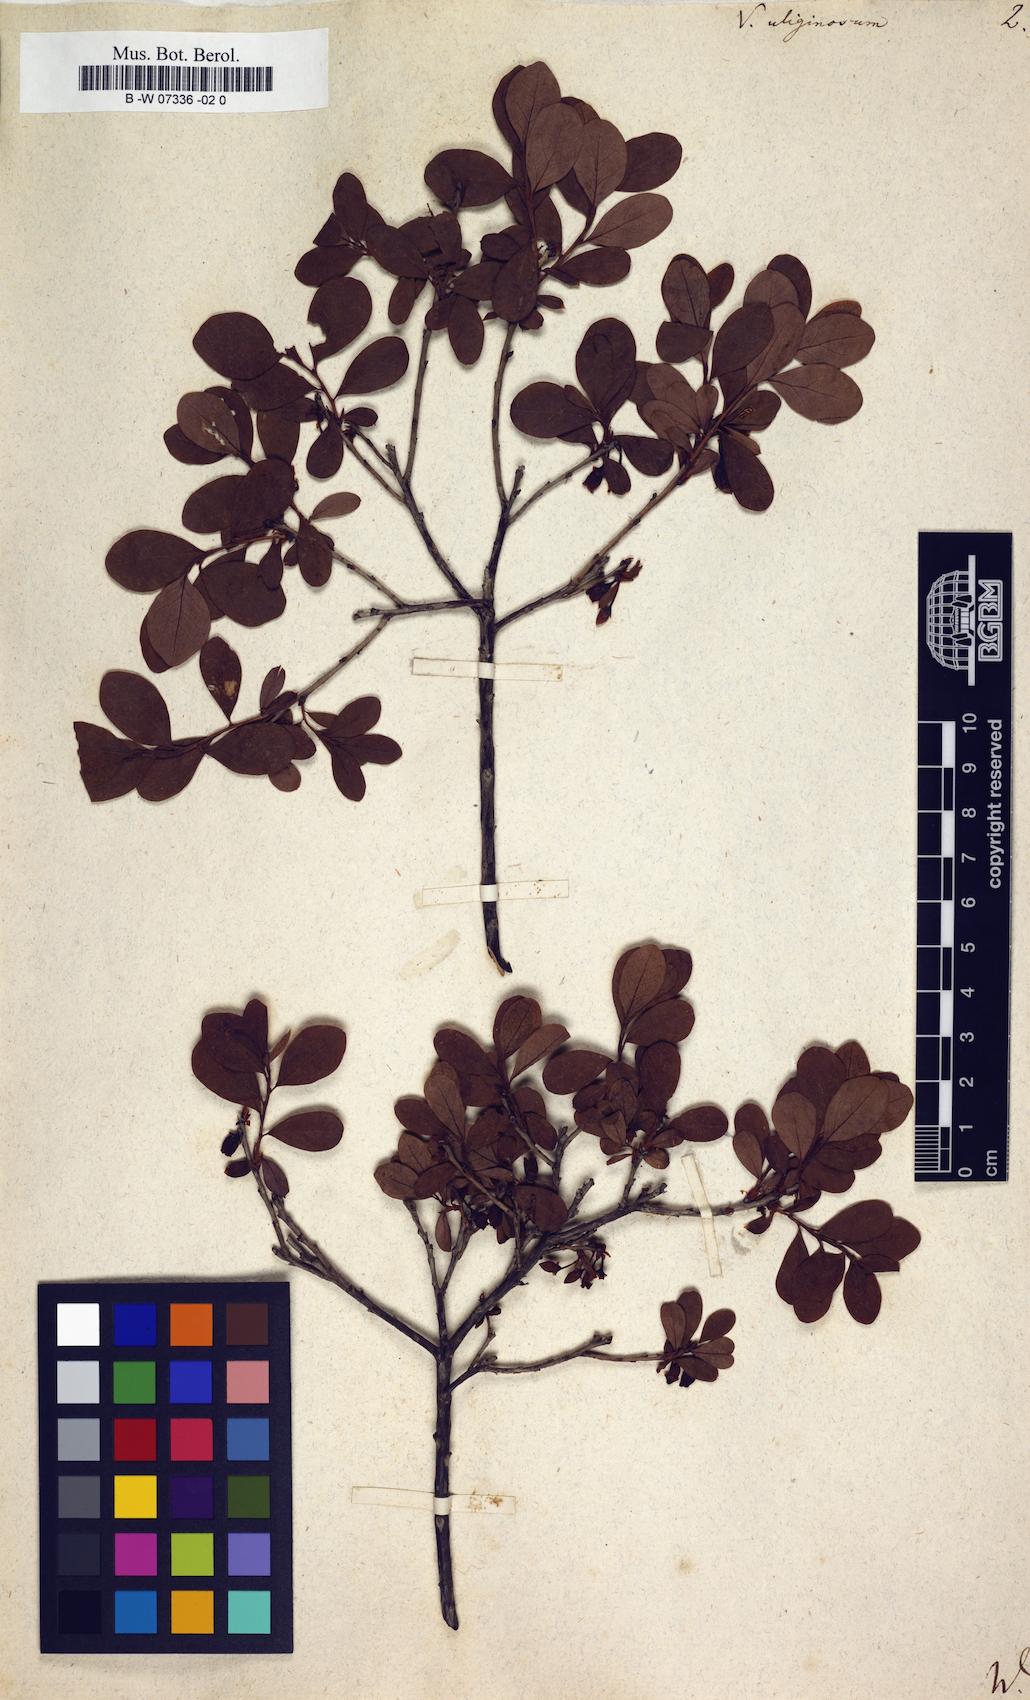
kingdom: Plantae
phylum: Tracheophyta
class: Magnoliopsida
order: Ericales
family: Ericaceae
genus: Vaccinium
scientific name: Vaccinium uliginosum
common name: Bog bilberry
